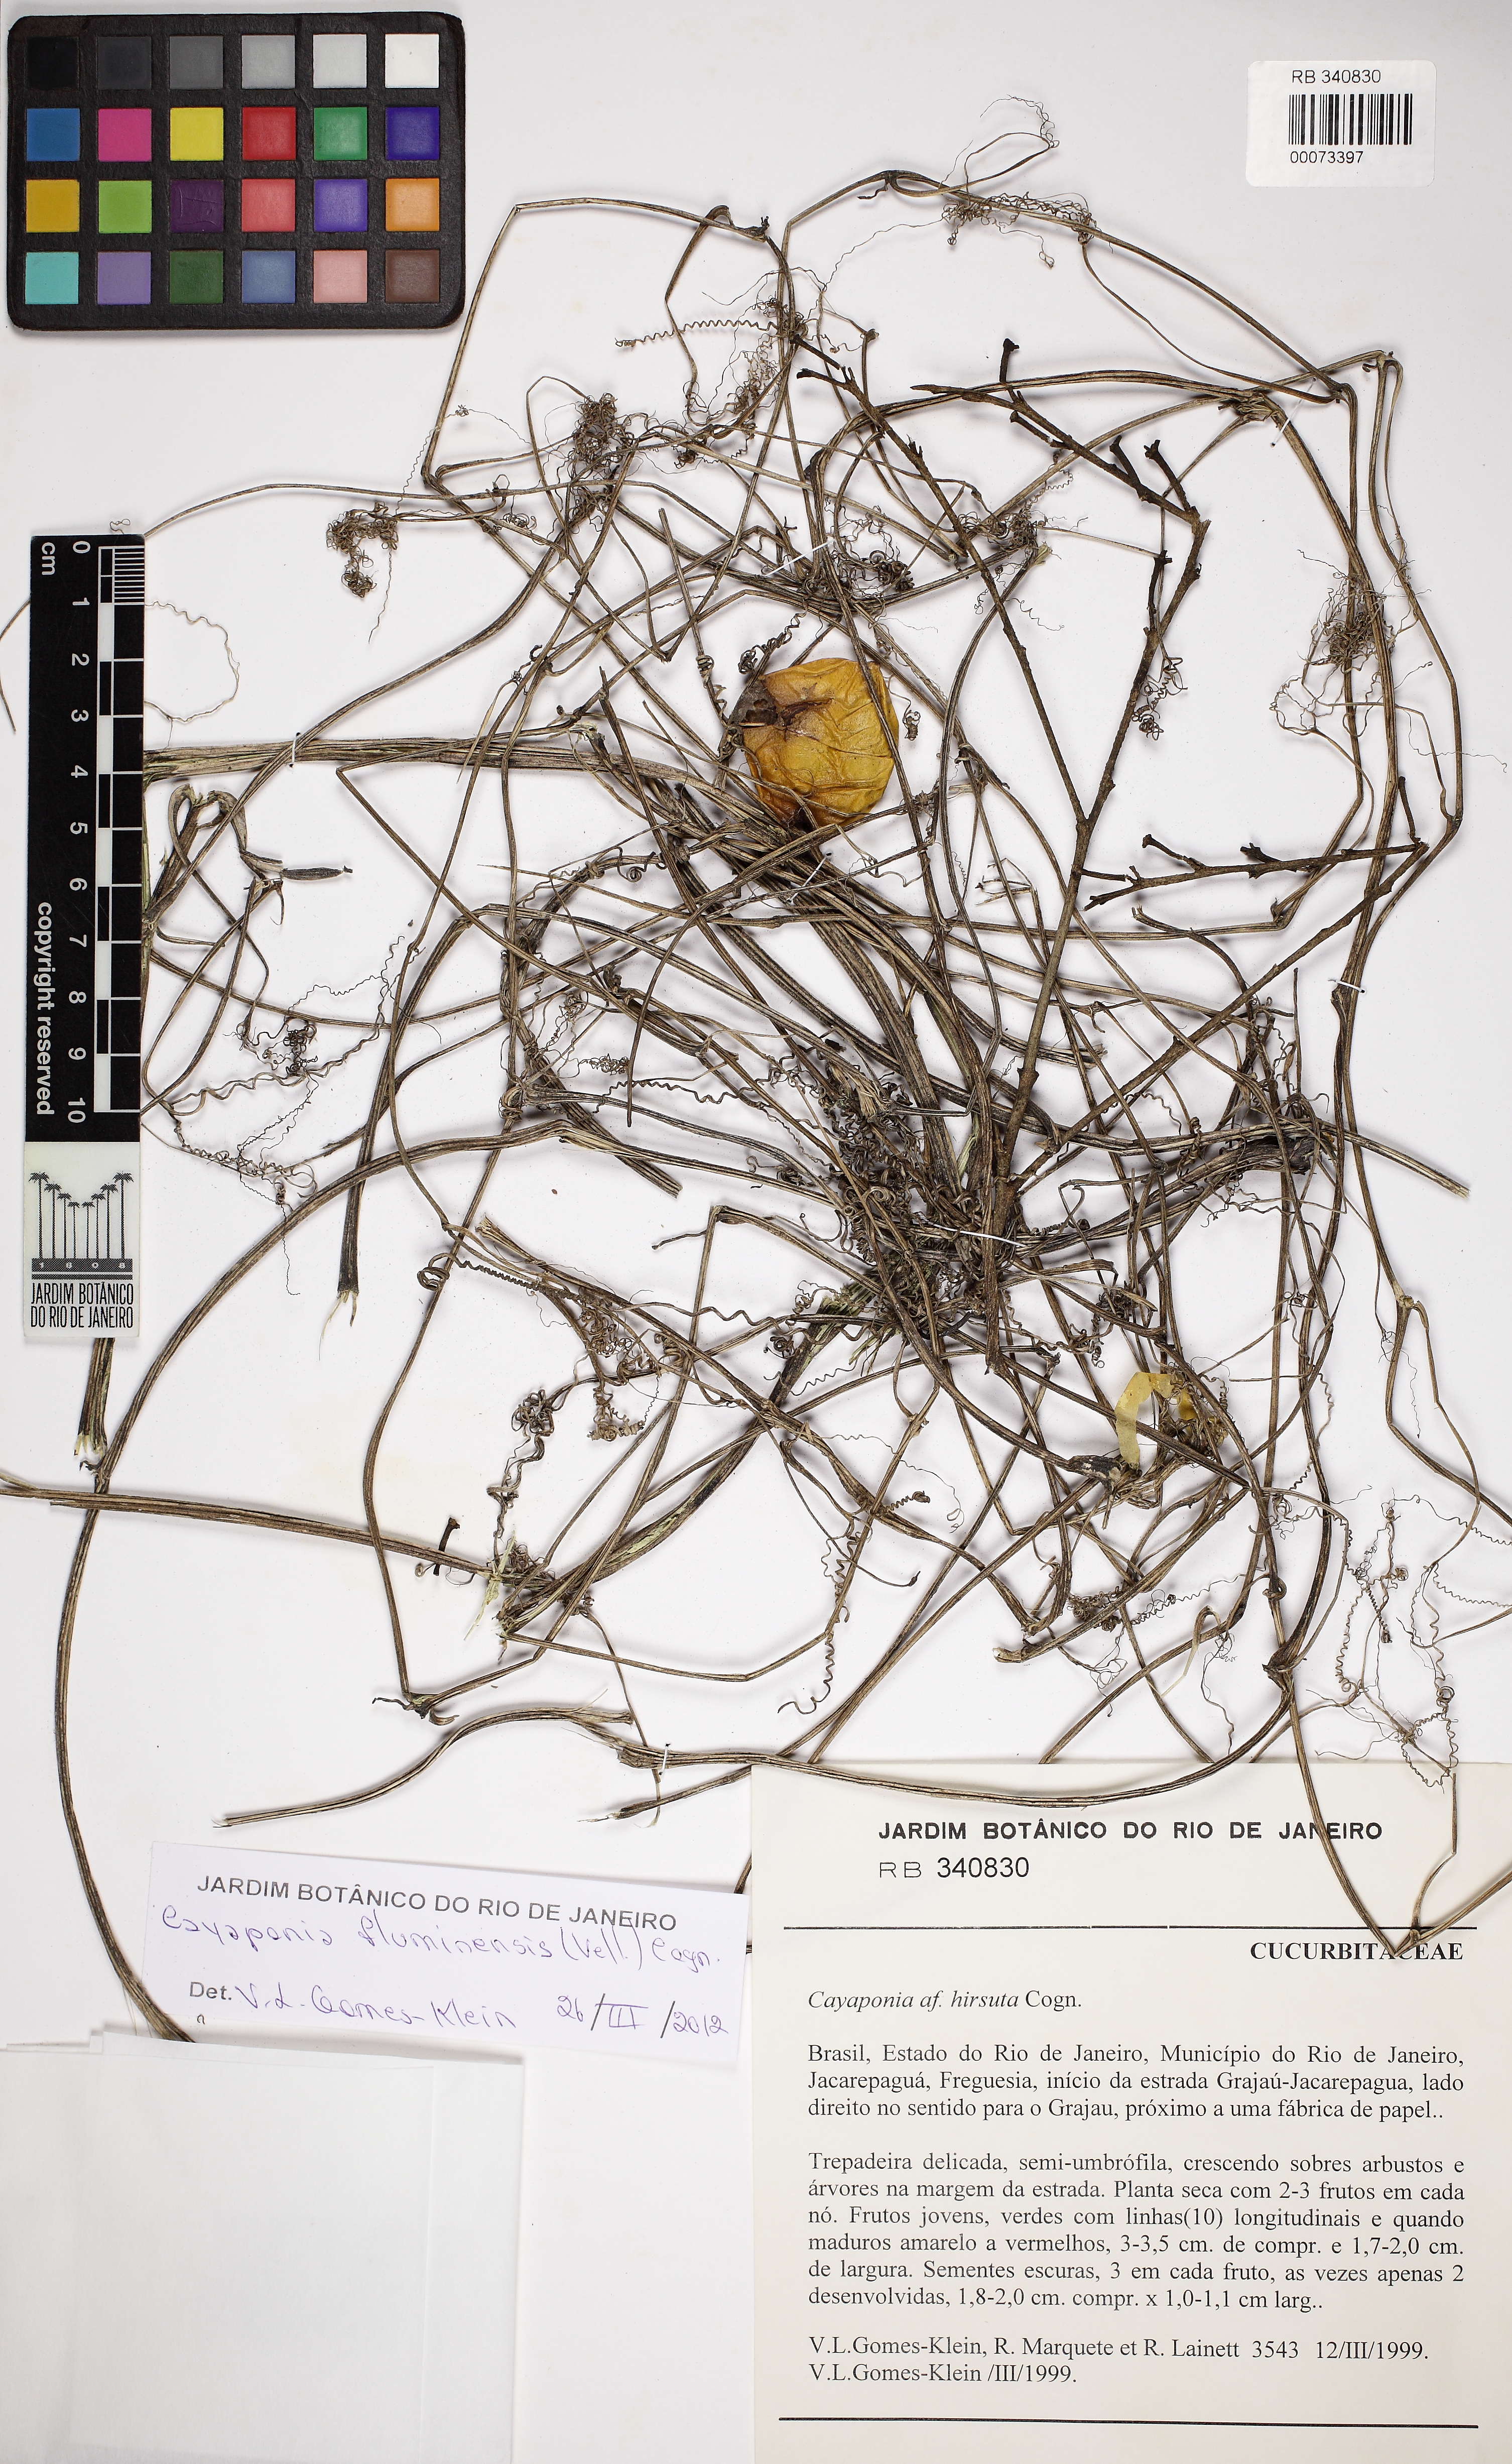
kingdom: Plantae
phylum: Tracheophyta
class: Magnoliopsida
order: Cucurbitales
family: Cucurbitaceae
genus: Cayaponia
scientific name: Cayaponia fluminensis
